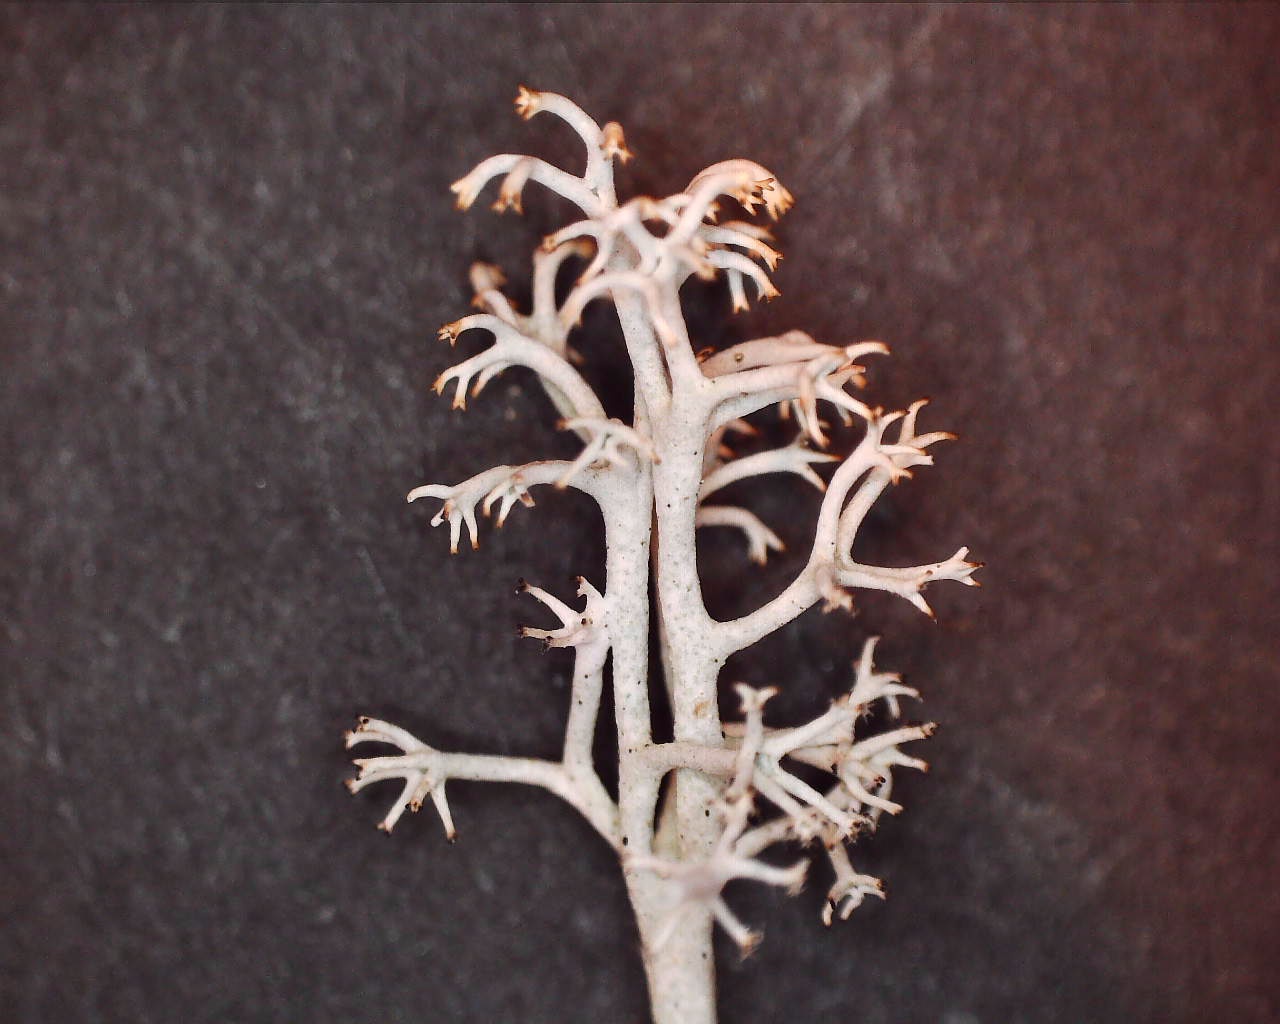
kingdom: Fungi
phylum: Ascomycota
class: Lecanoromycetes
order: Lecanorales
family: Cladoniaceae
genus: Cladonia
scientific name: Cladonia rangiferina
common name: askegrå rensdyrlav
